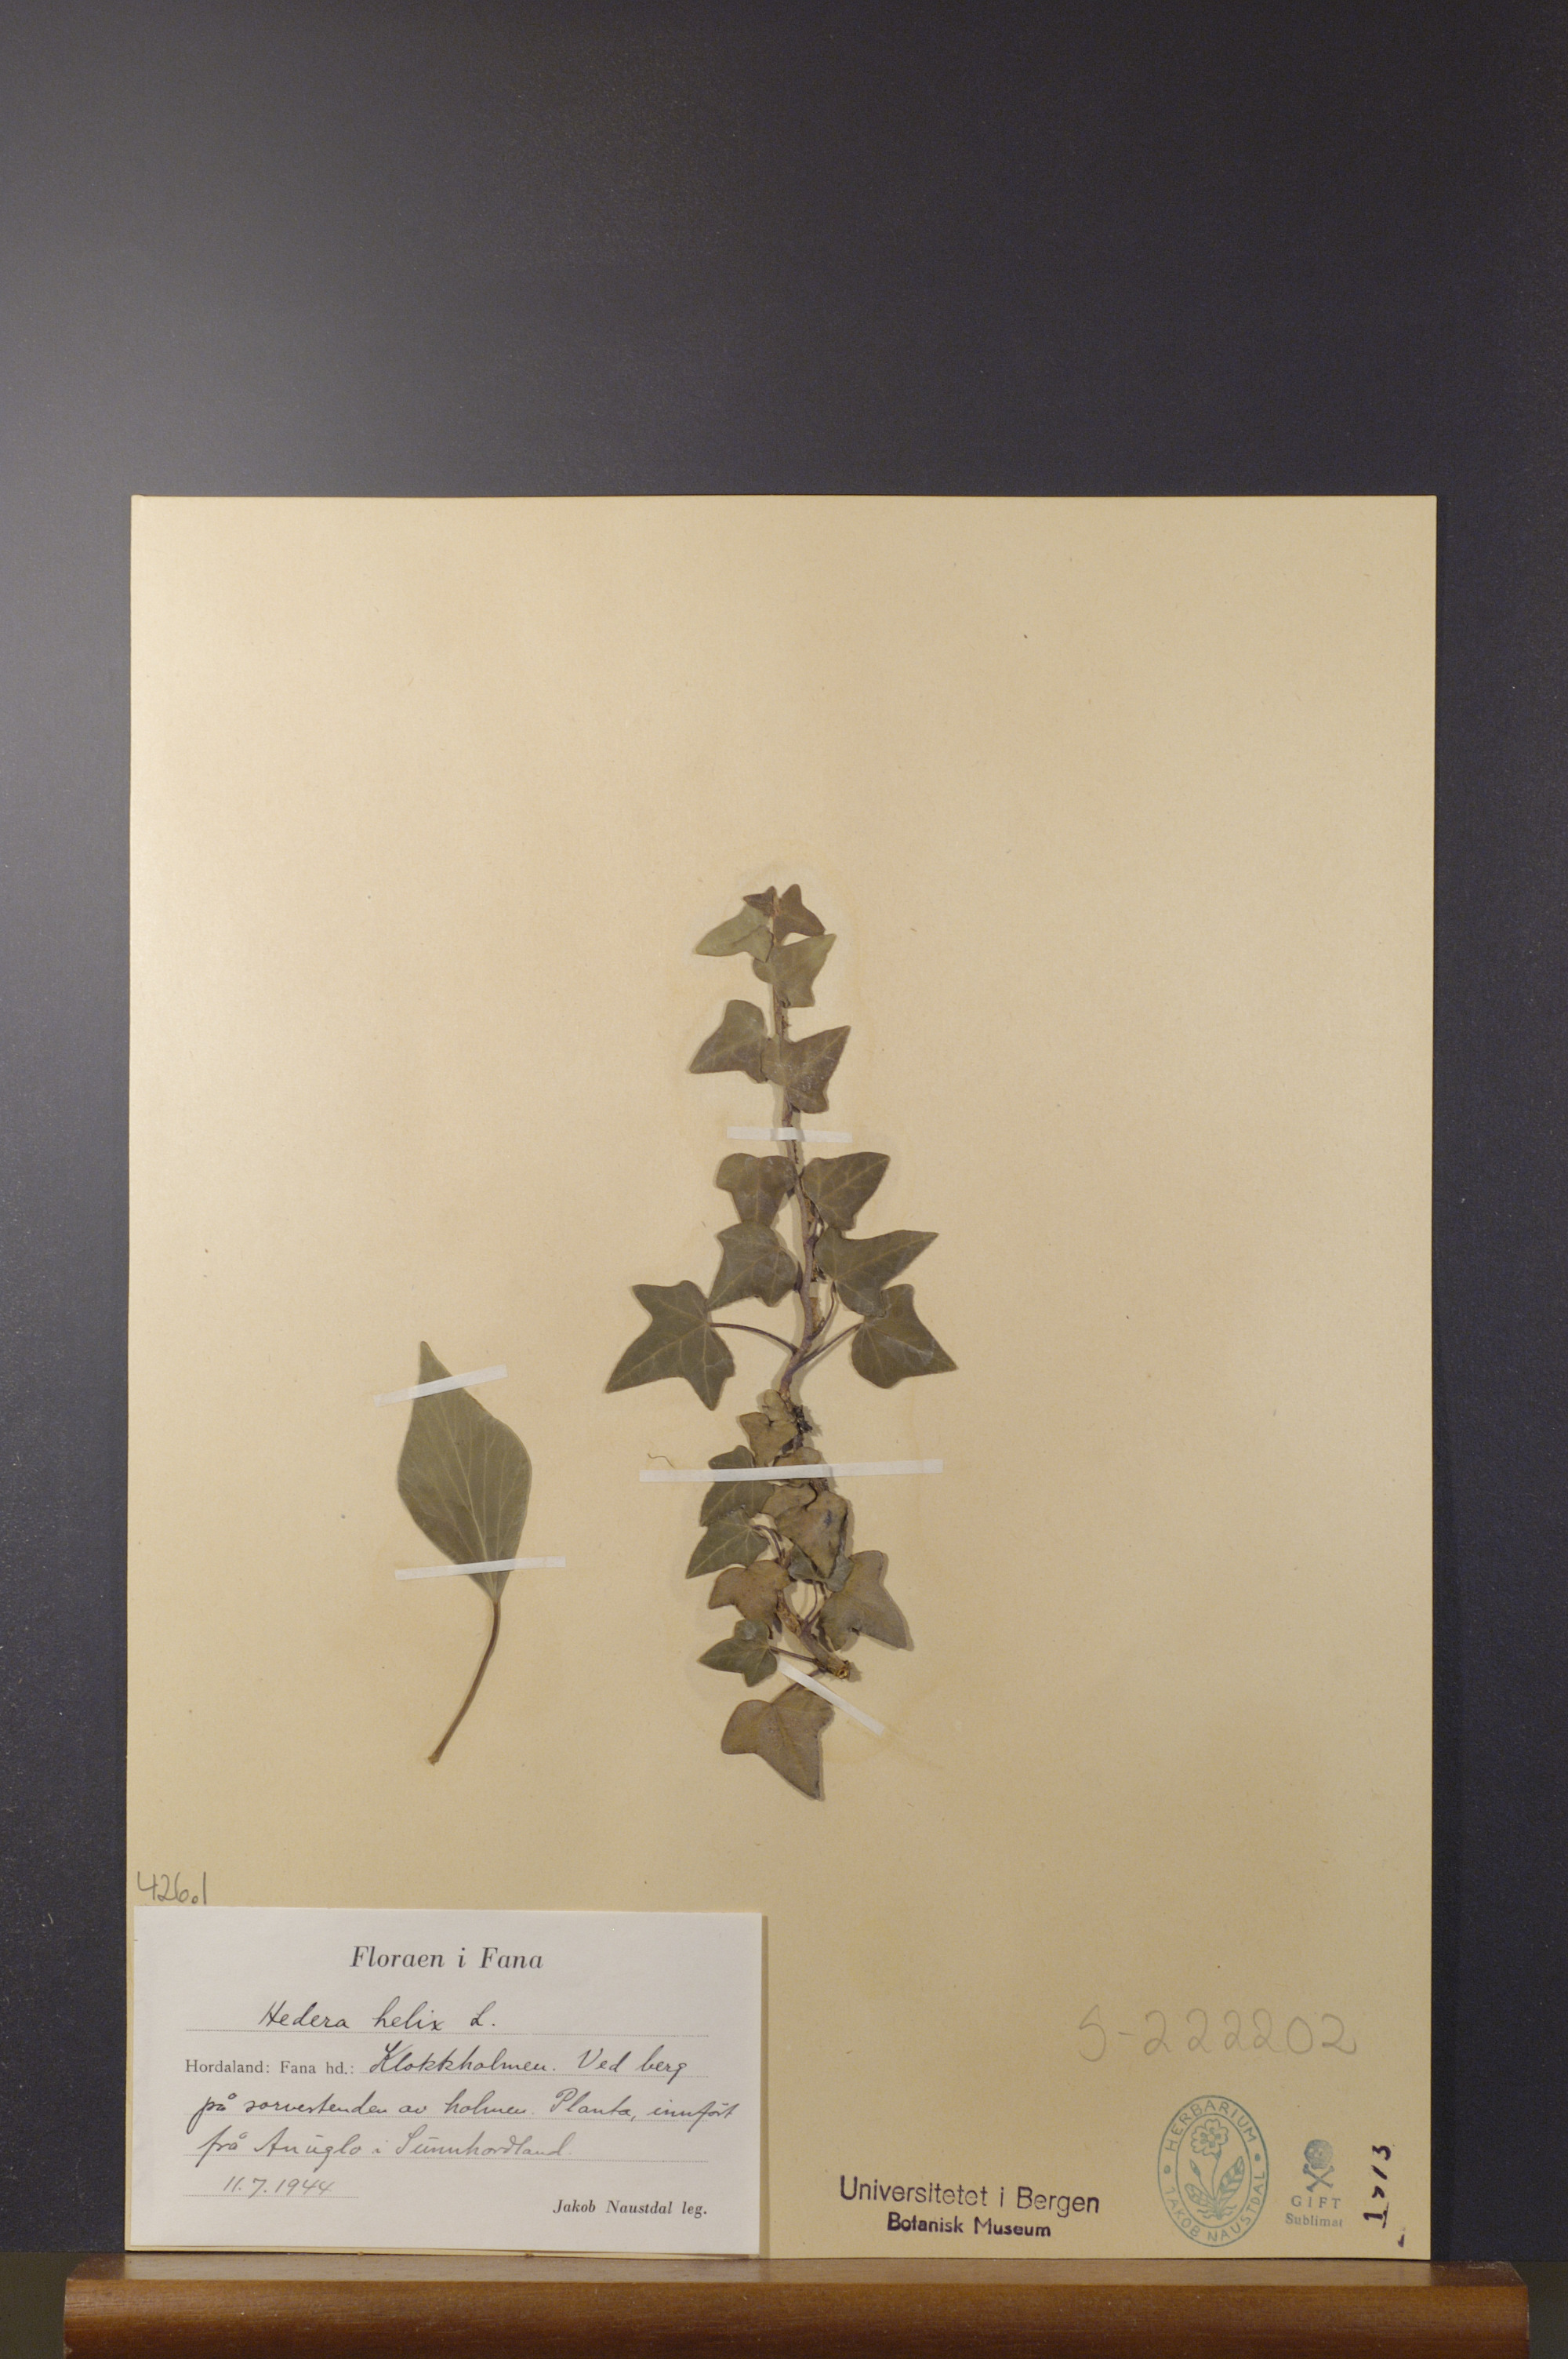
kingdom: Plantae
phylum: Tracheophyta
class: Magnoliopsida
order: Apiales
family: Araliaceae
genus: Hedera
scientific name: Hedera helix
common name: Ivy
